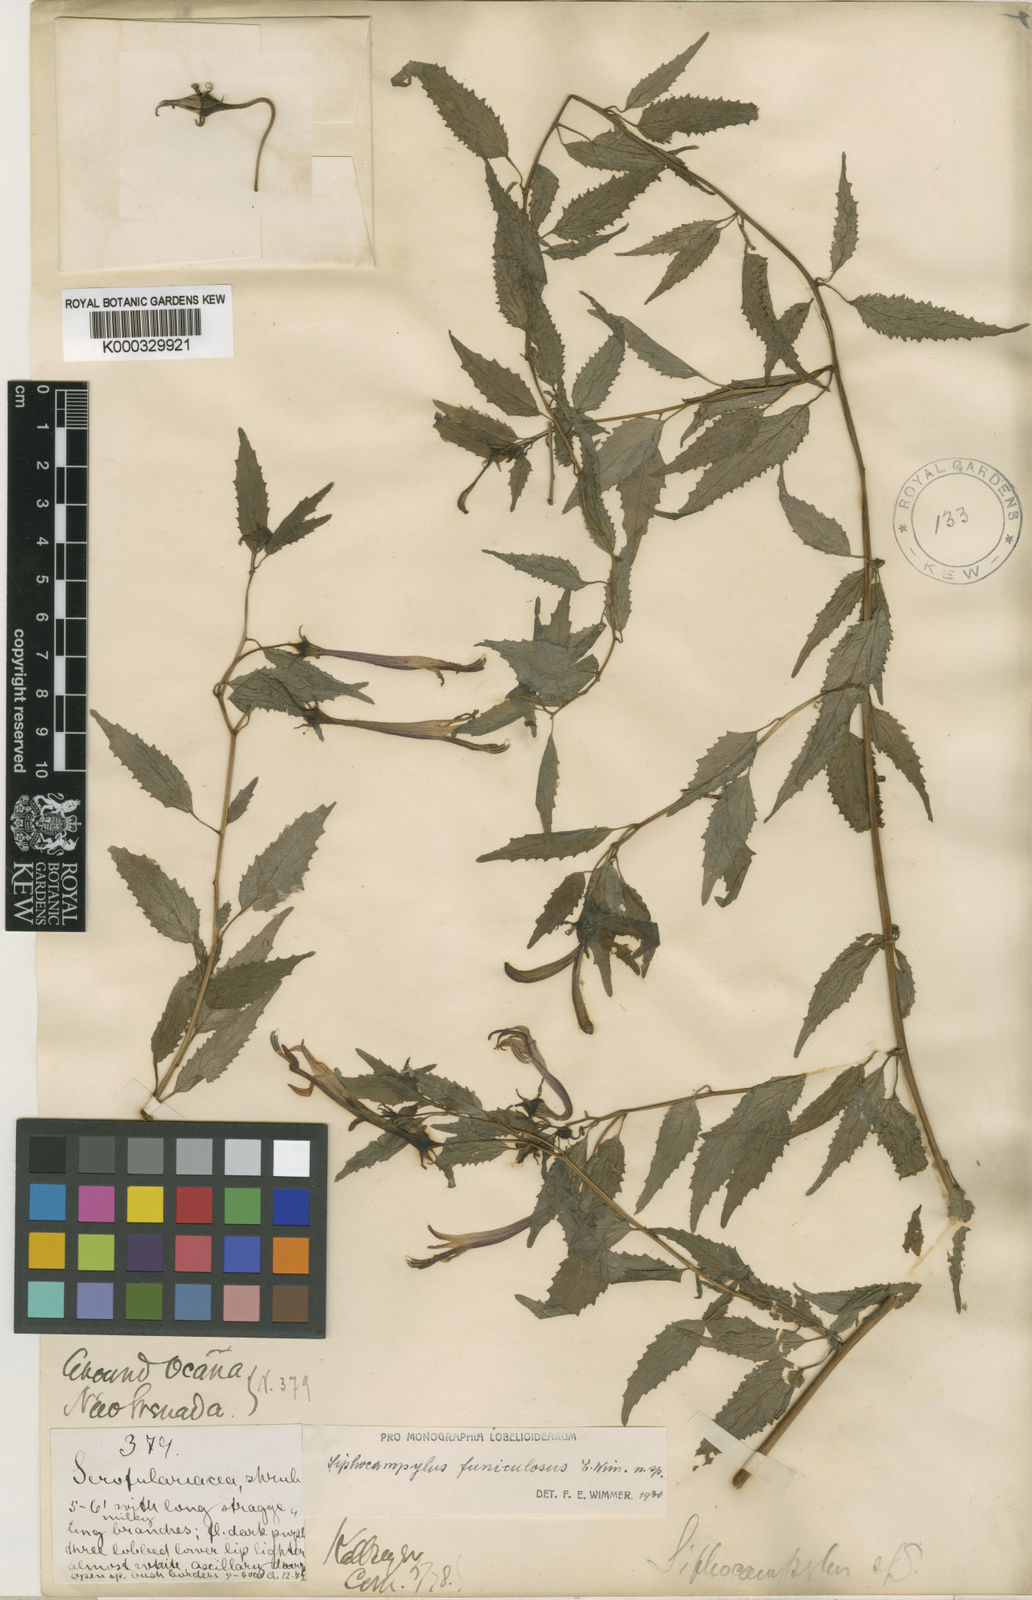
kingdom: Plantae
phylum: Tracheophyta
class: Magnoliopsida
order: Asterales
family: Campanulaceae
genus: Siphocampylus
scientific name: Siphocampylus funiculosus
